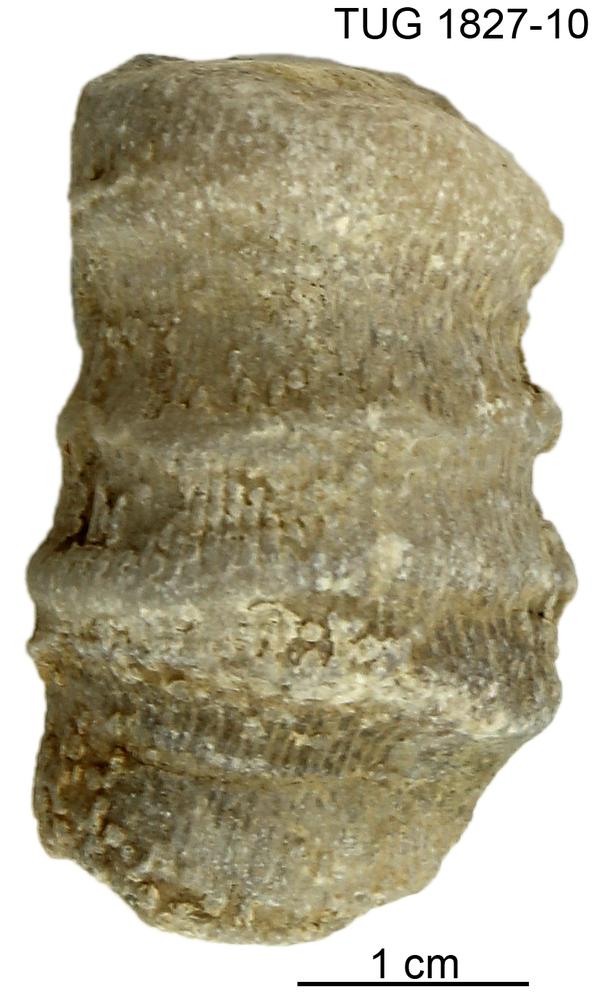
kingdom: Animalia
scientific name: Animalia
